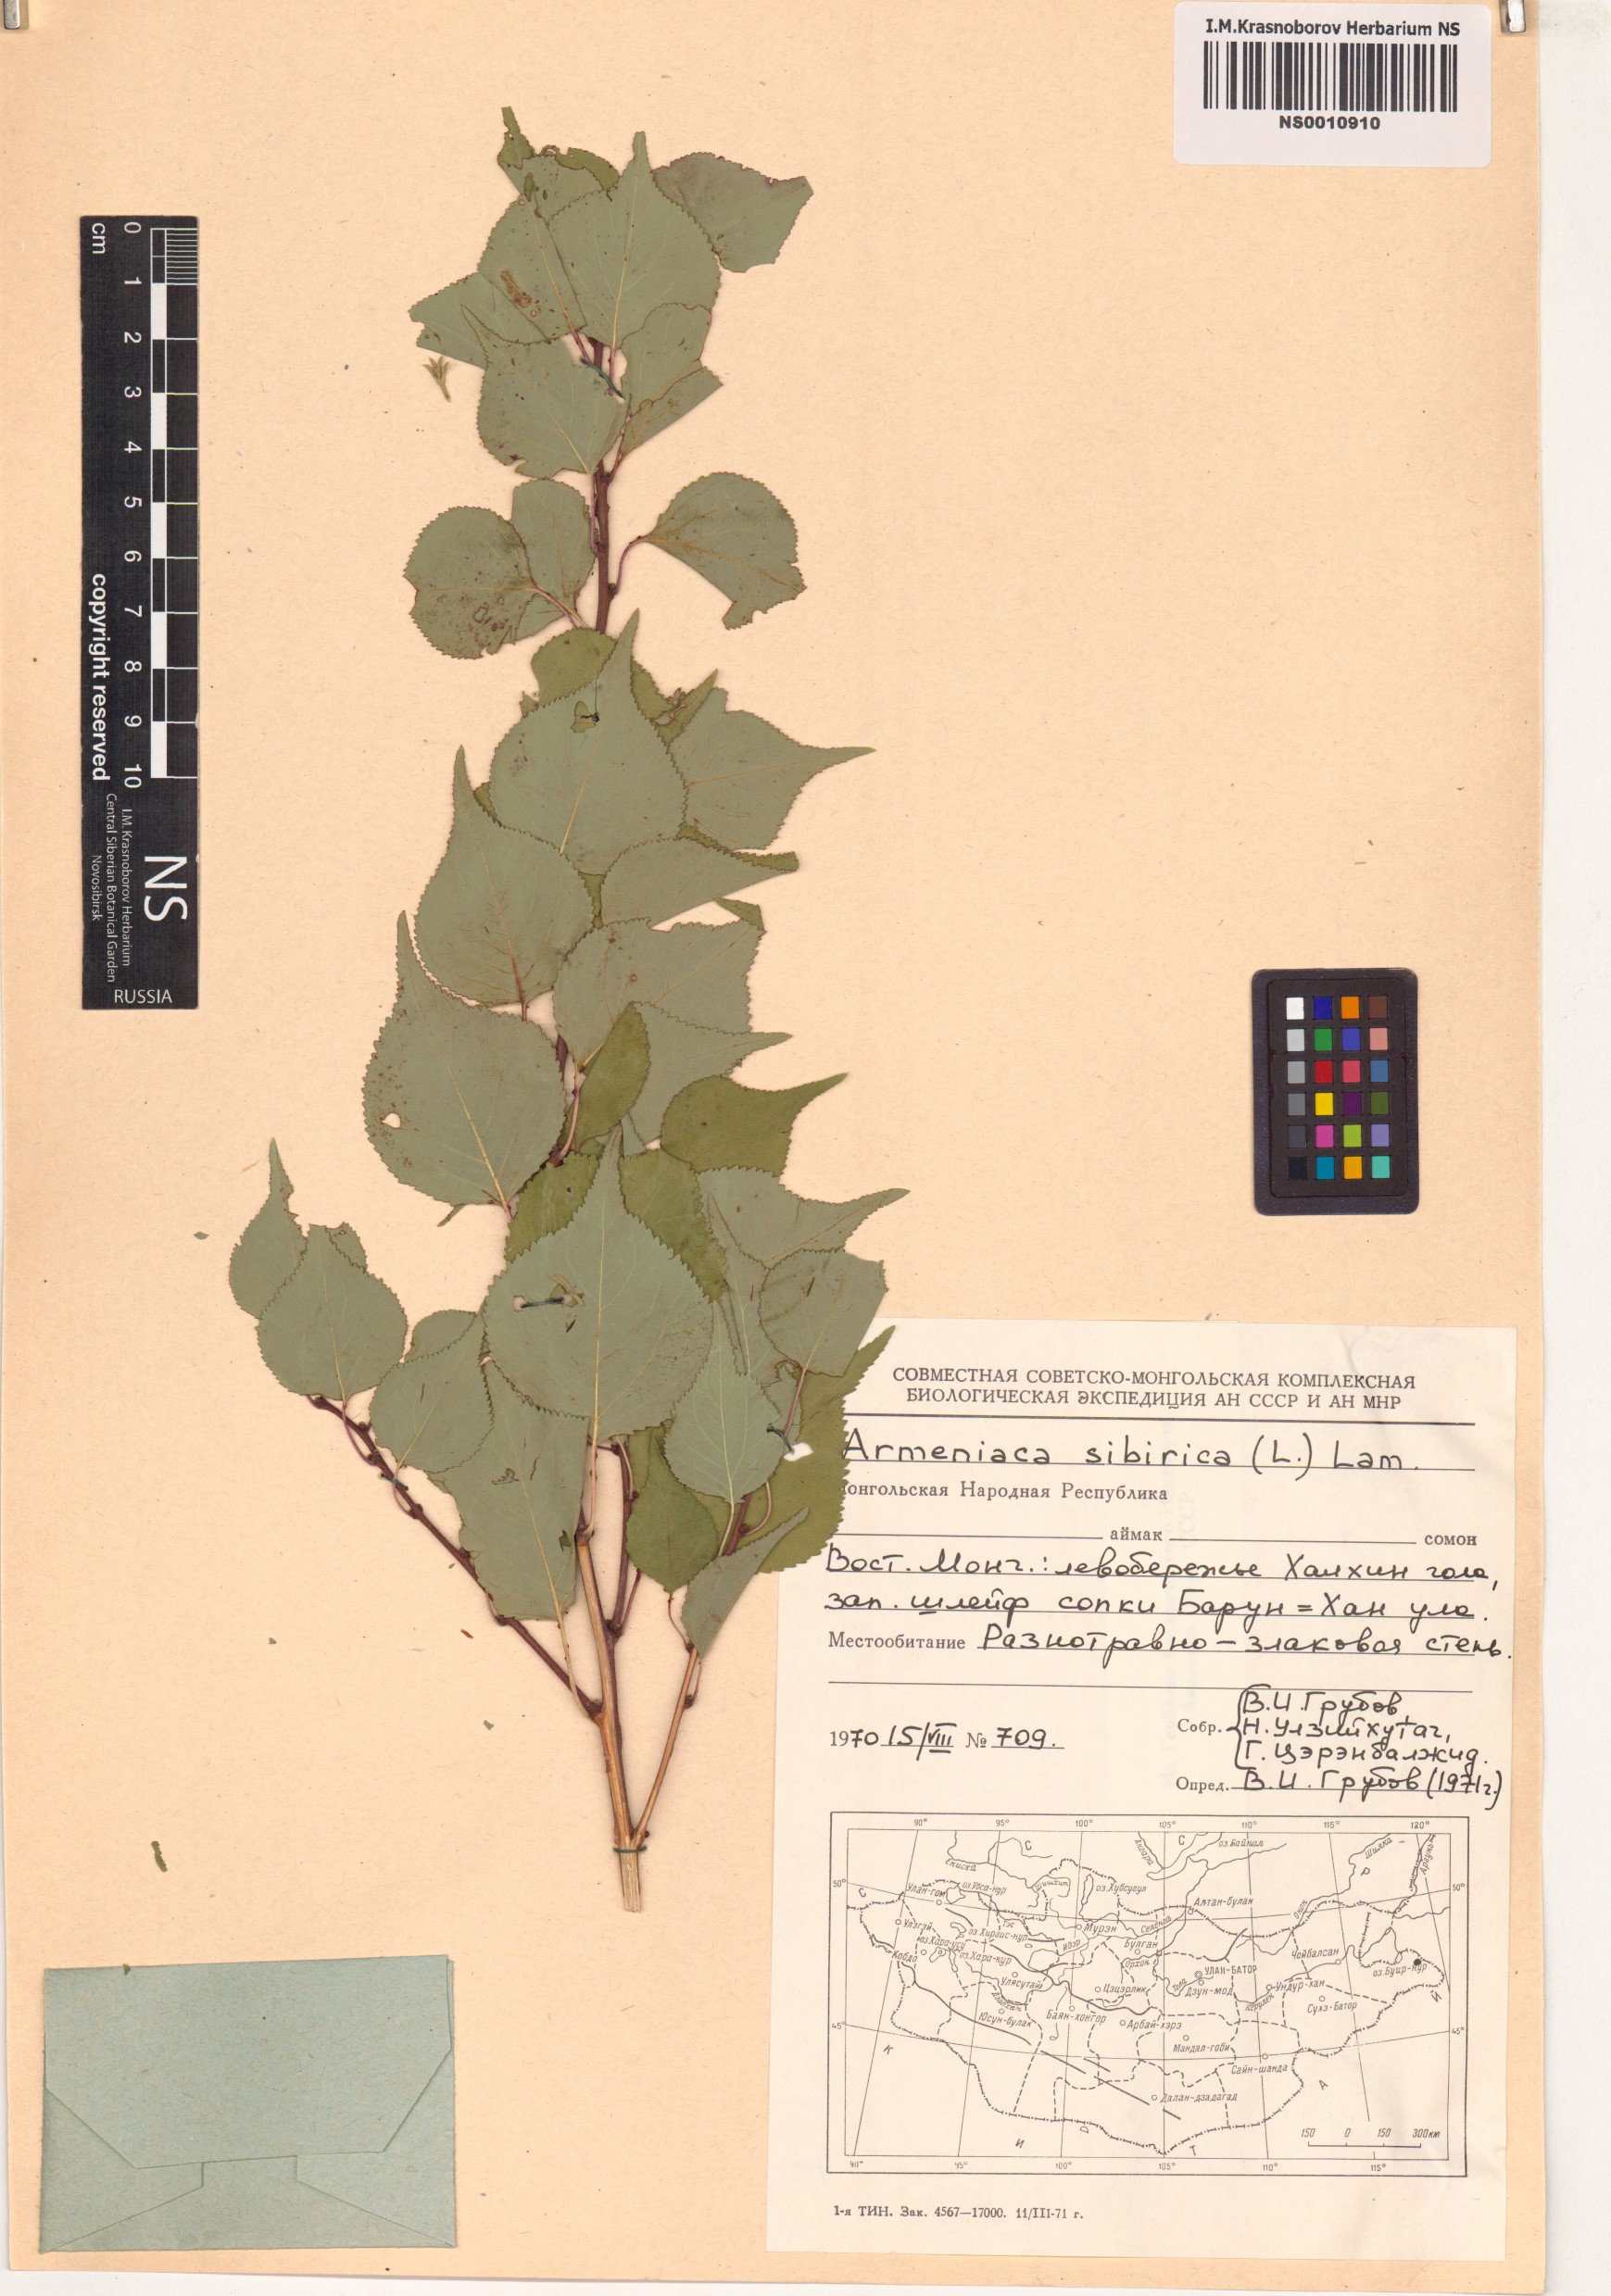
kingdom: Plantae
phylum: Tracheophyta
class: Magnoliopsida
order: Rosales
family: Rosaceae
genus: Prunus
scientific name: Prunus sibirica
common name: Siberian apricot
